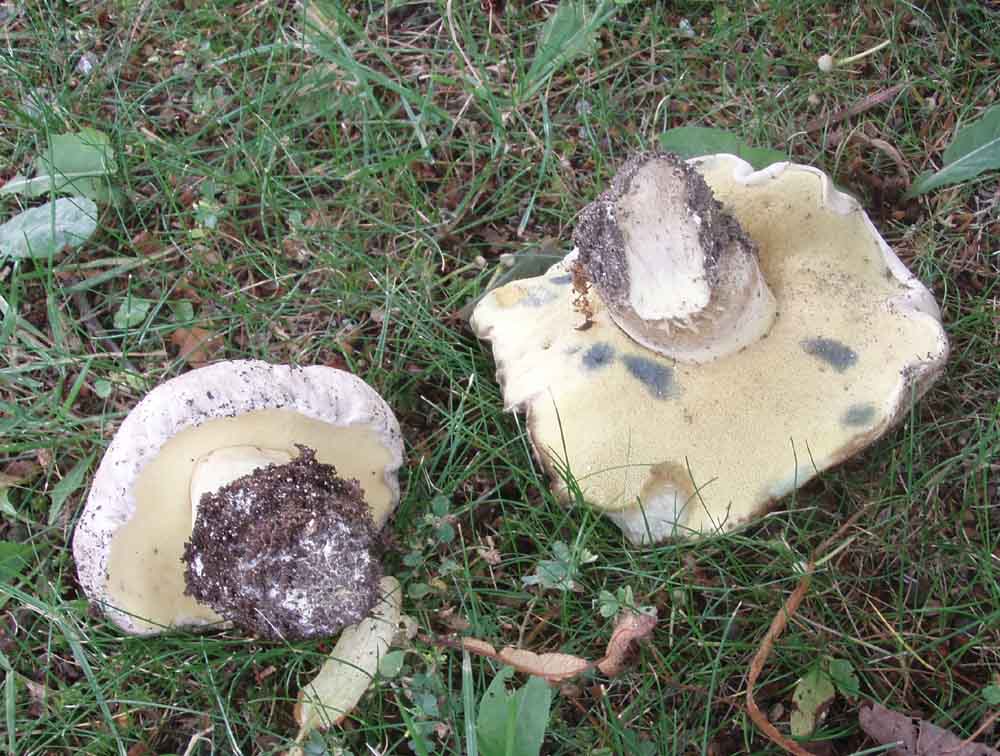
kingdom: Fungi
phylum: Basidiomycota
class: Agaricomycetes
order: Boletales
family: Boletaceae
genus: Caloboletus
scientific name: Caloboletus radicans
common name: rod-rørhat
